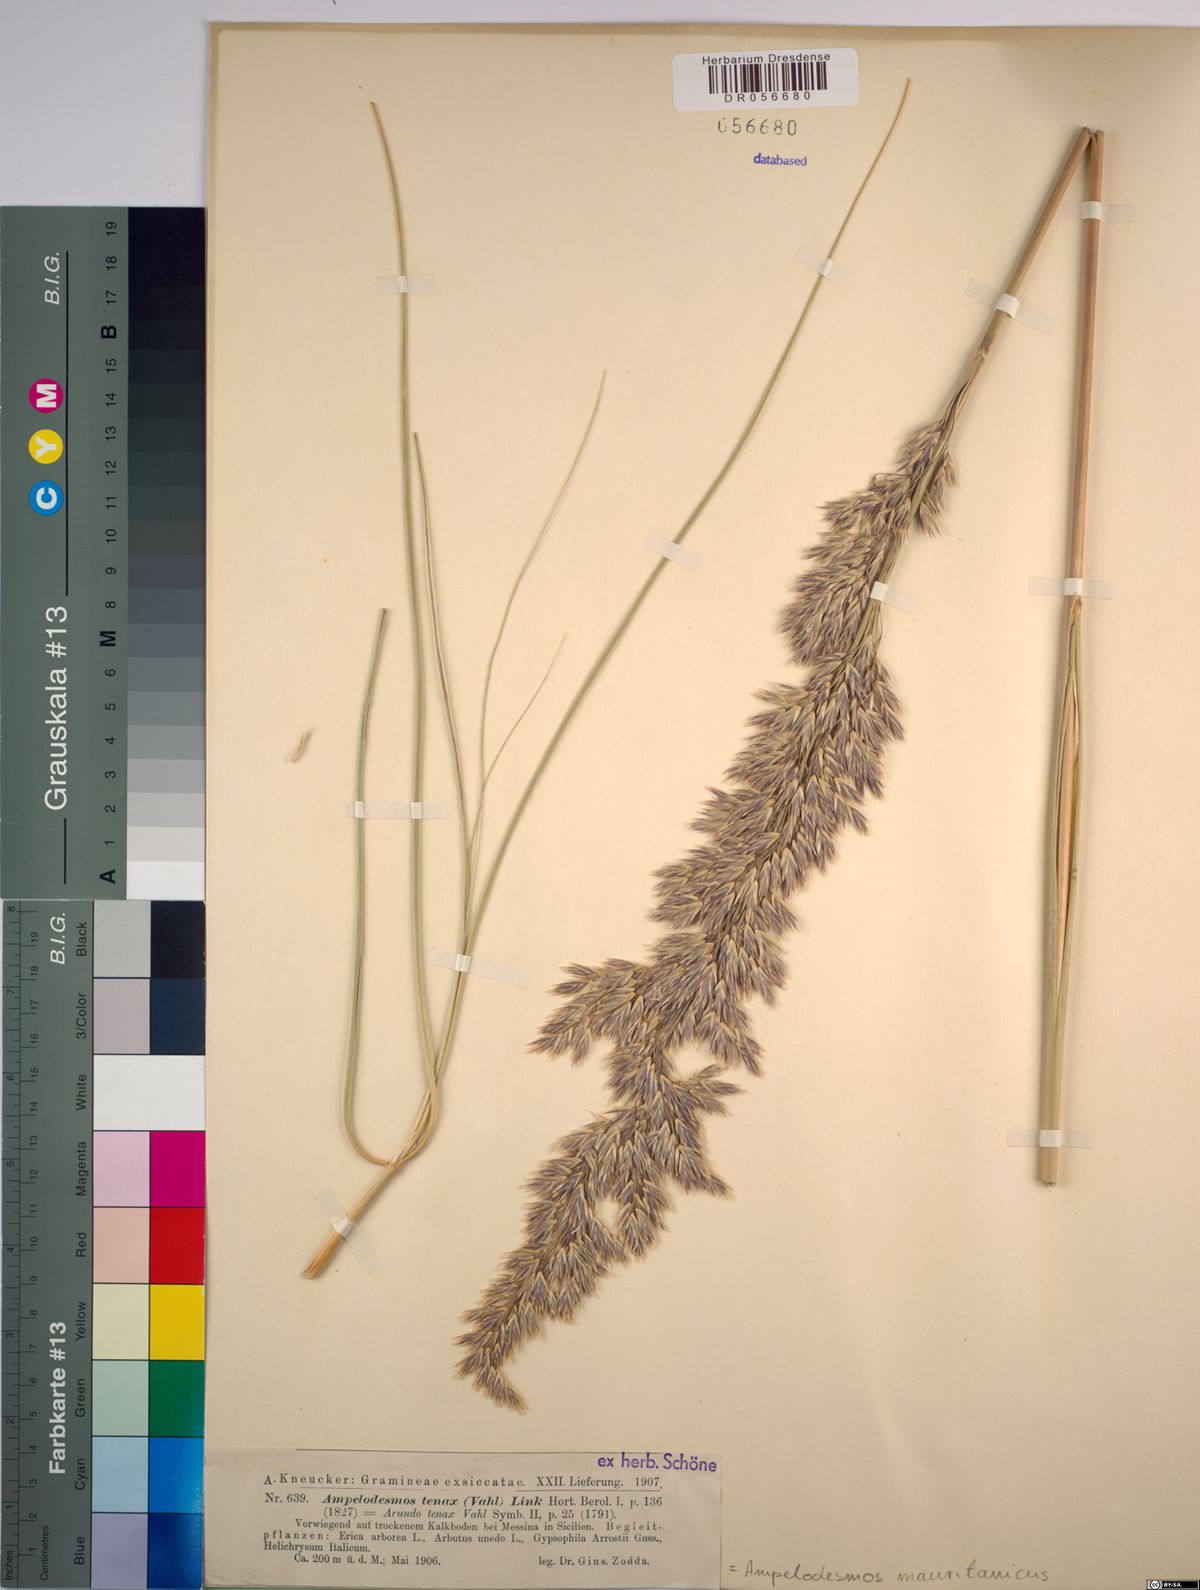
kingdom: Plantae
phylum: Tracheophyta
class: Liliopsida
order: Poales
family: Poaceae
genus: Ampelodesmos
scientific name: Ampelodesmos mauritanicus
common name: Mauritanian grass
